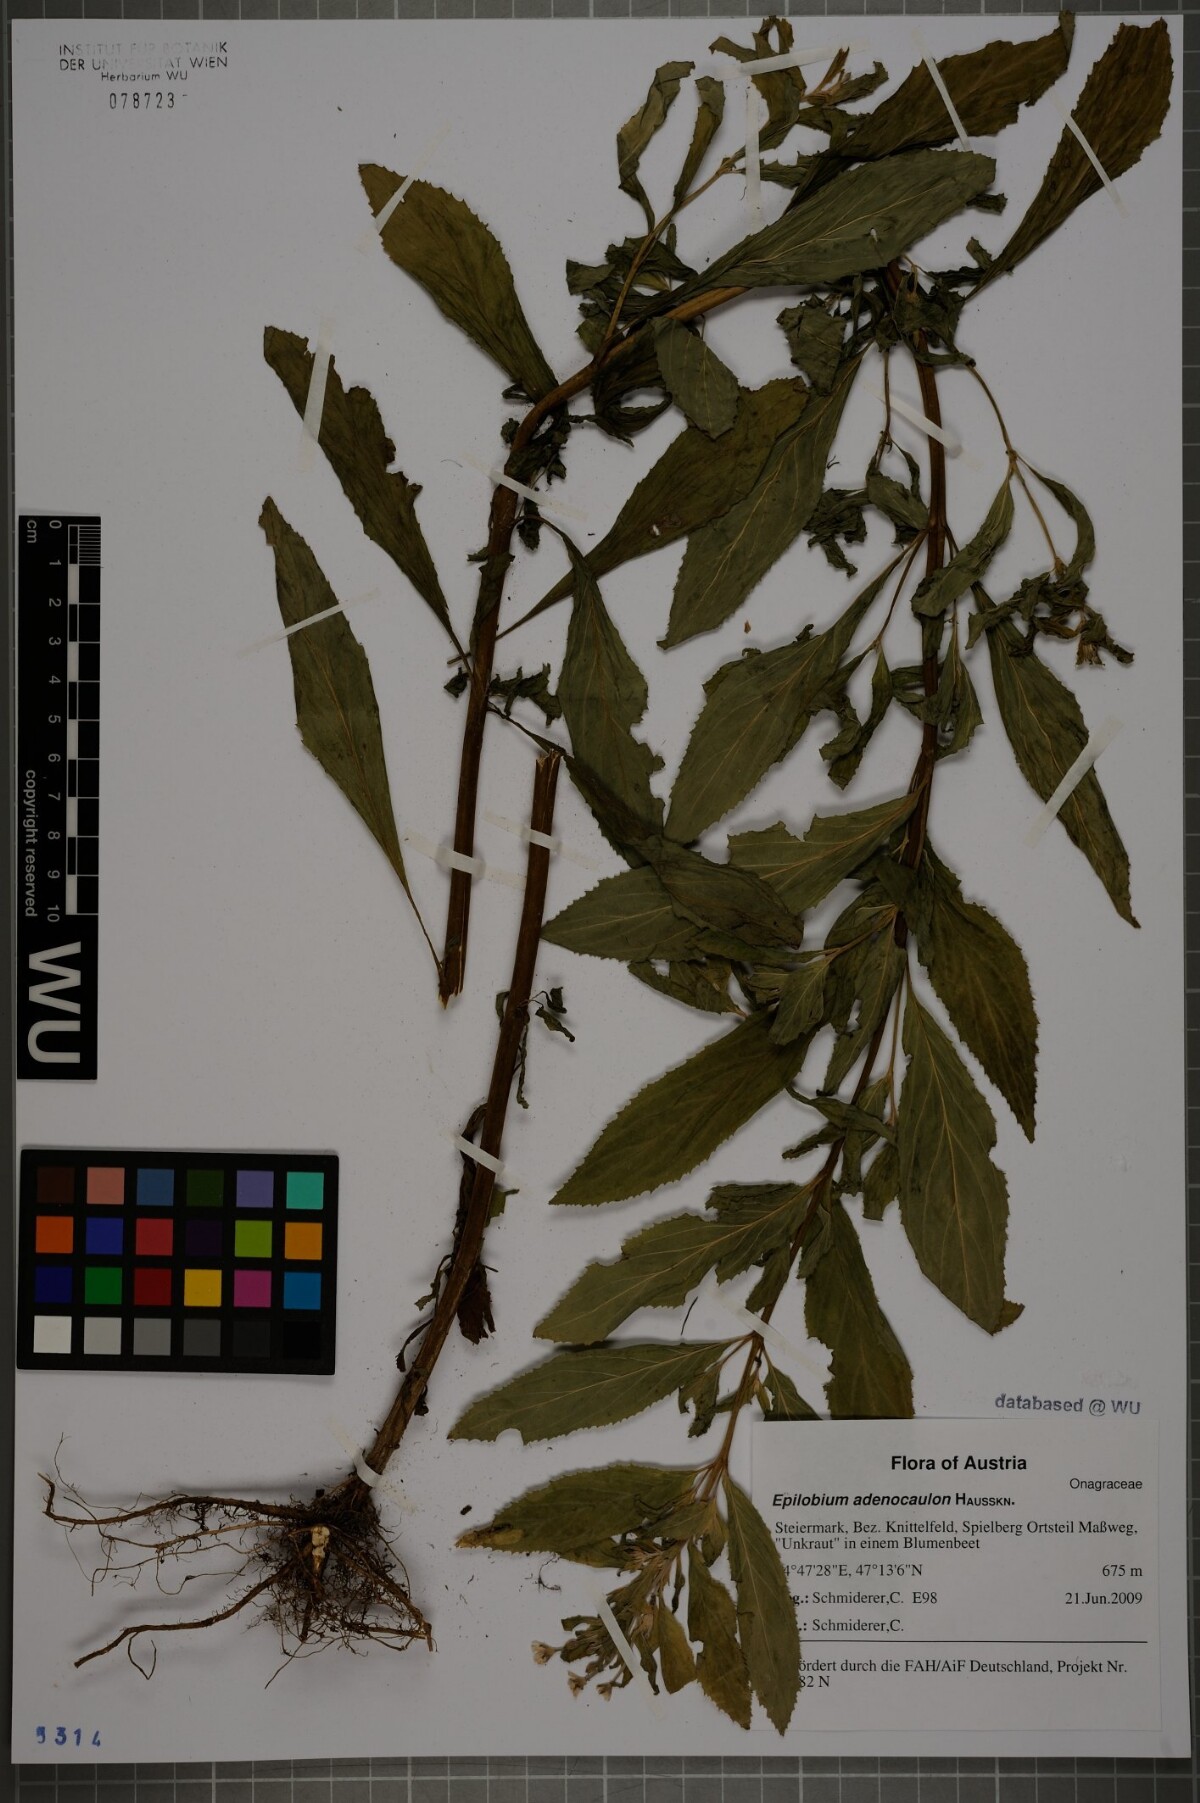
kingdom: Plantae
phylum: Tracheophyta
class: Magnoliopsida
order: Myrtales
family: Onagraceae
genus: Epilobium
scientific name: Epilobium ciliatum
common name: American willowherb
